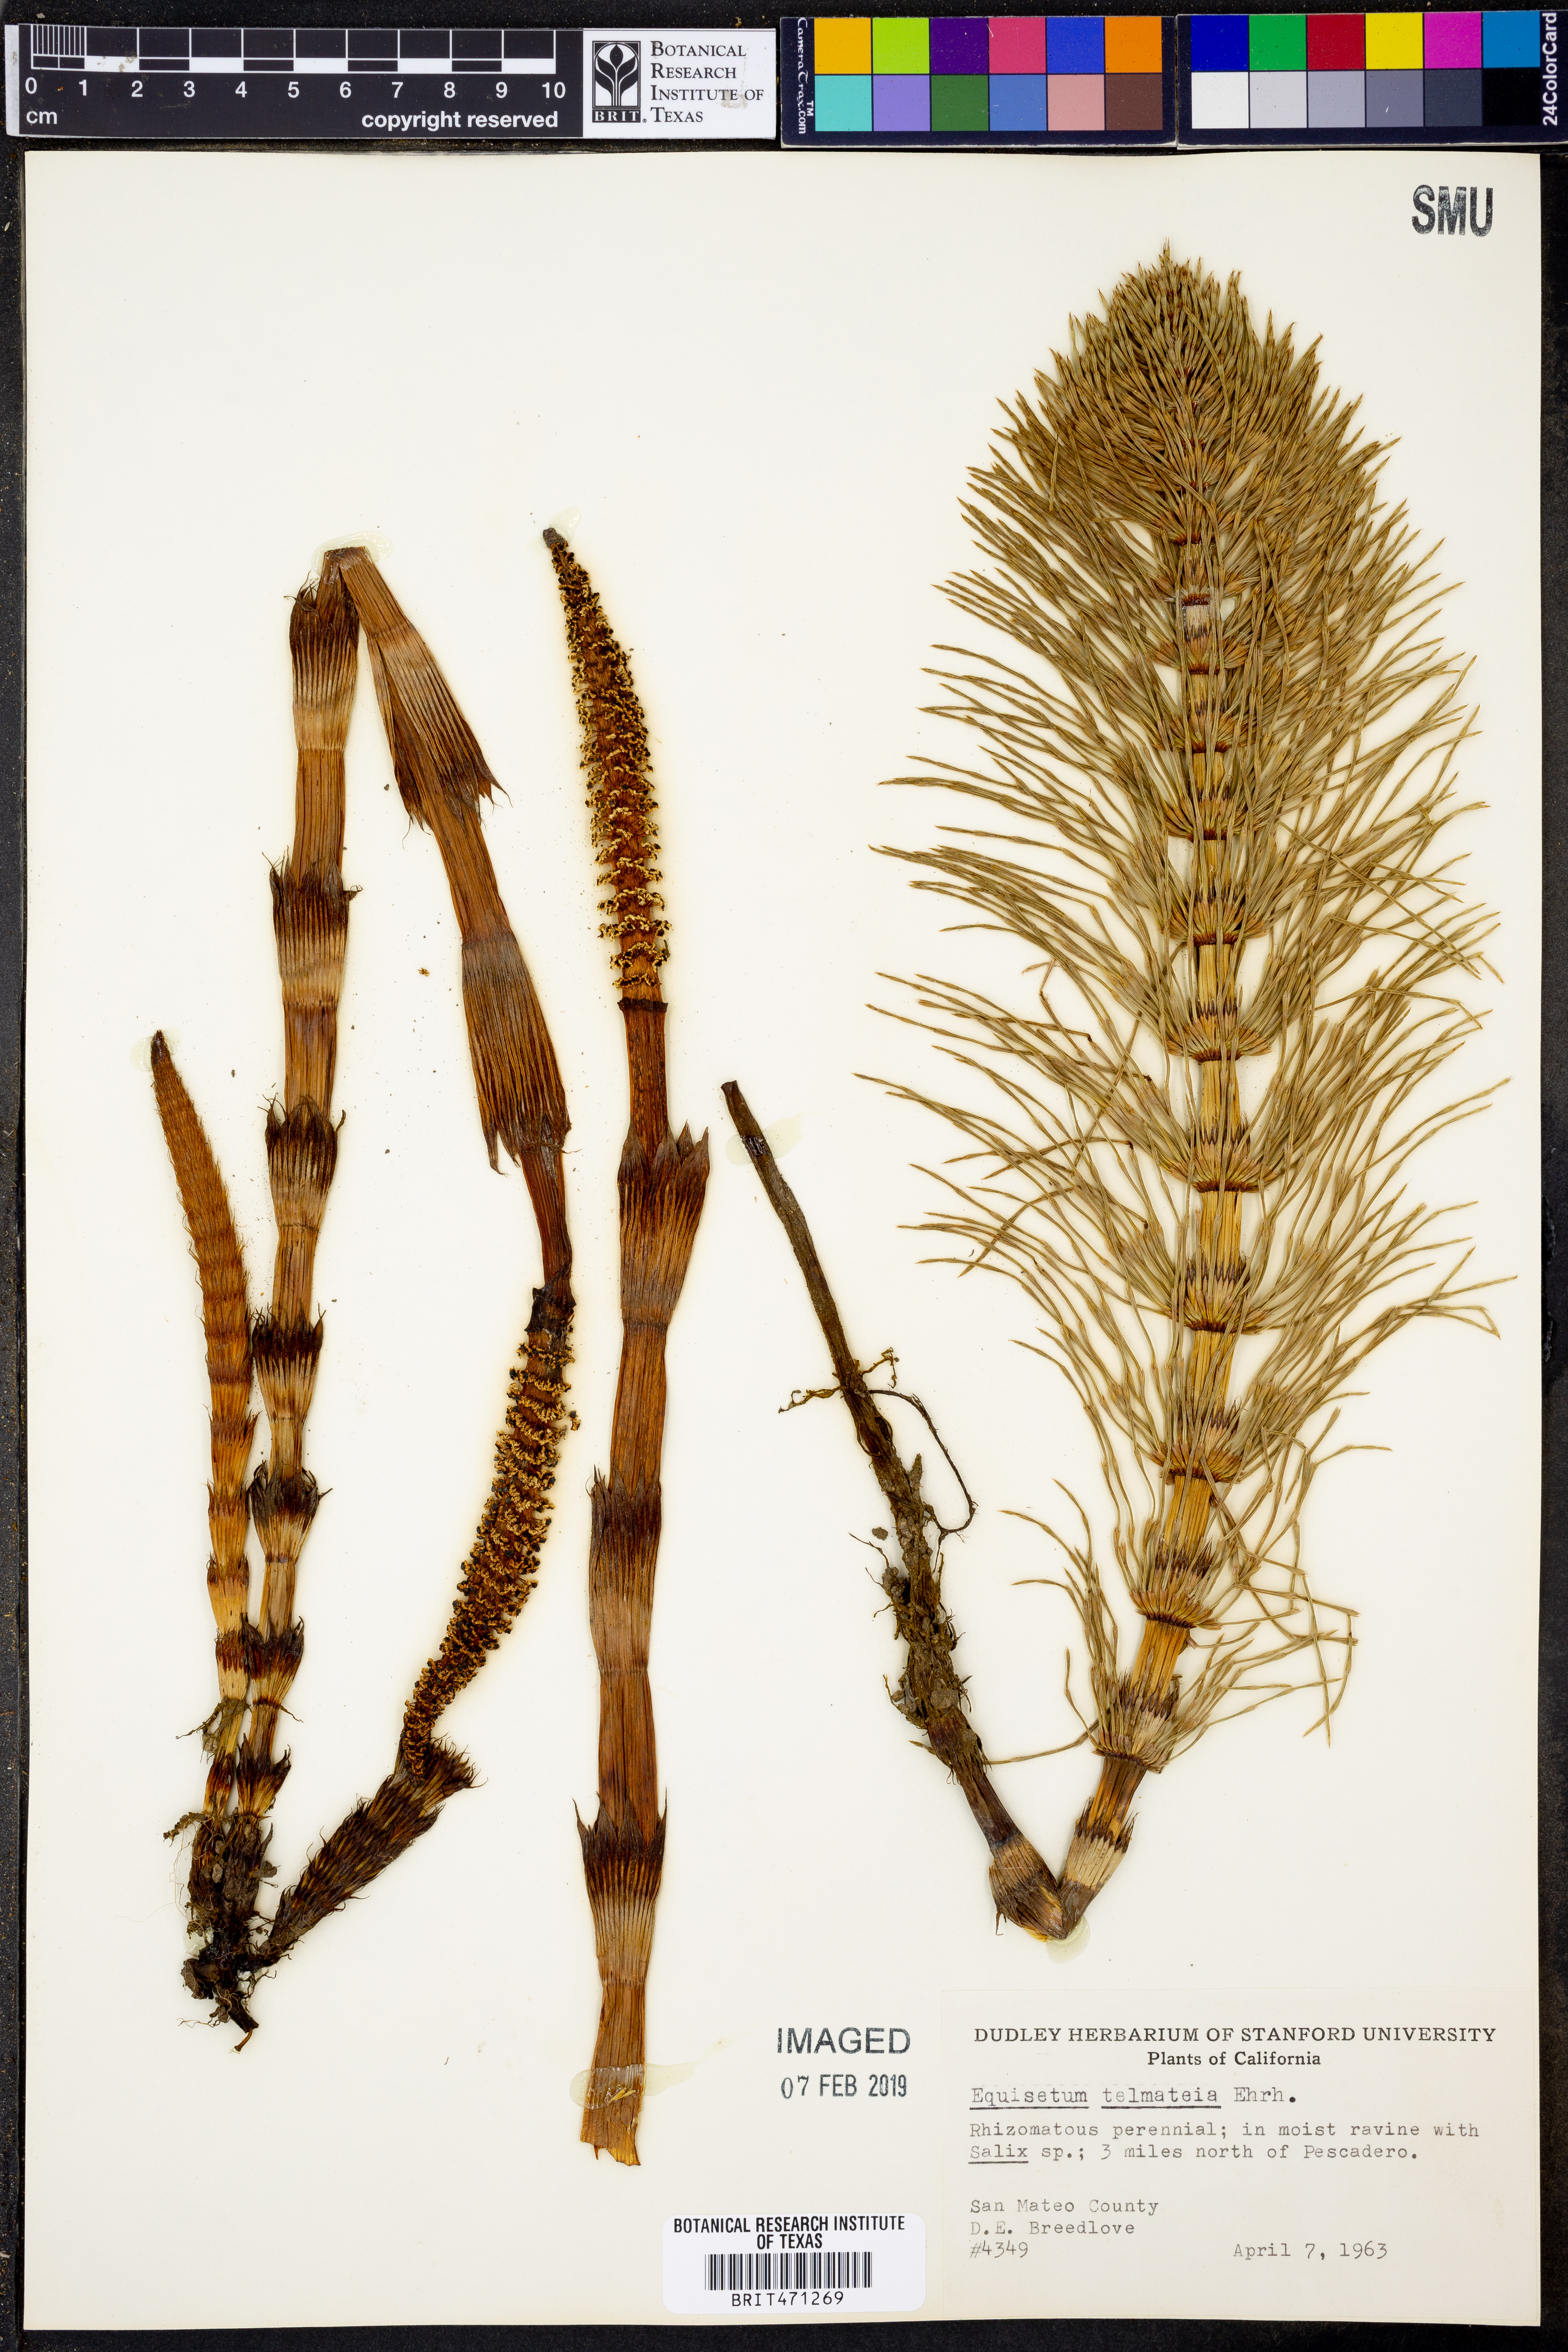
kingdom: Plantae
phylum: Tracheophyta
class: Polypodiopsida
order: Equisetales
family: Equisetaceae
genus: Equisetum
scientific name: Equisetum telmateia
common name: Great horsetail
